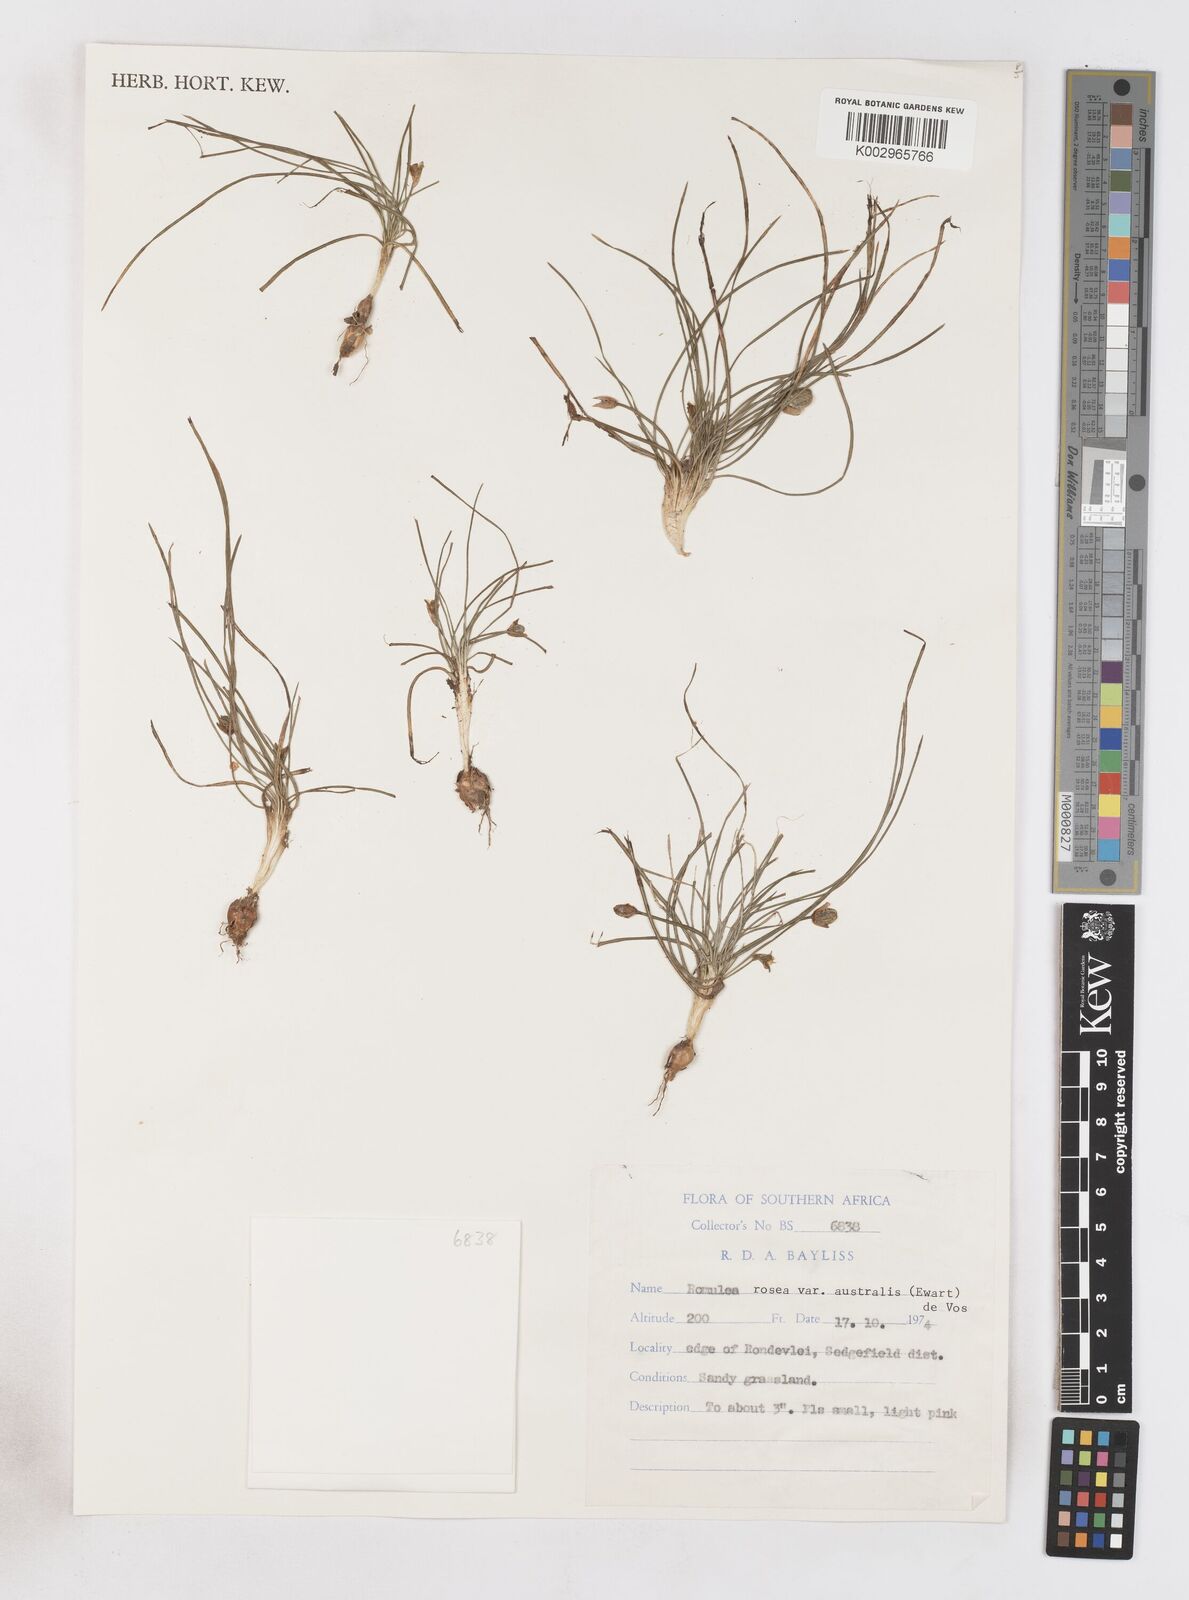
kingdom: Plantae
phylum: Tracheophyta
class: Liliopsida
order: Asparagales
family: Iridaceae
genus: Romulea
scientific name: Romulea rosea
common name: Oniongrass
